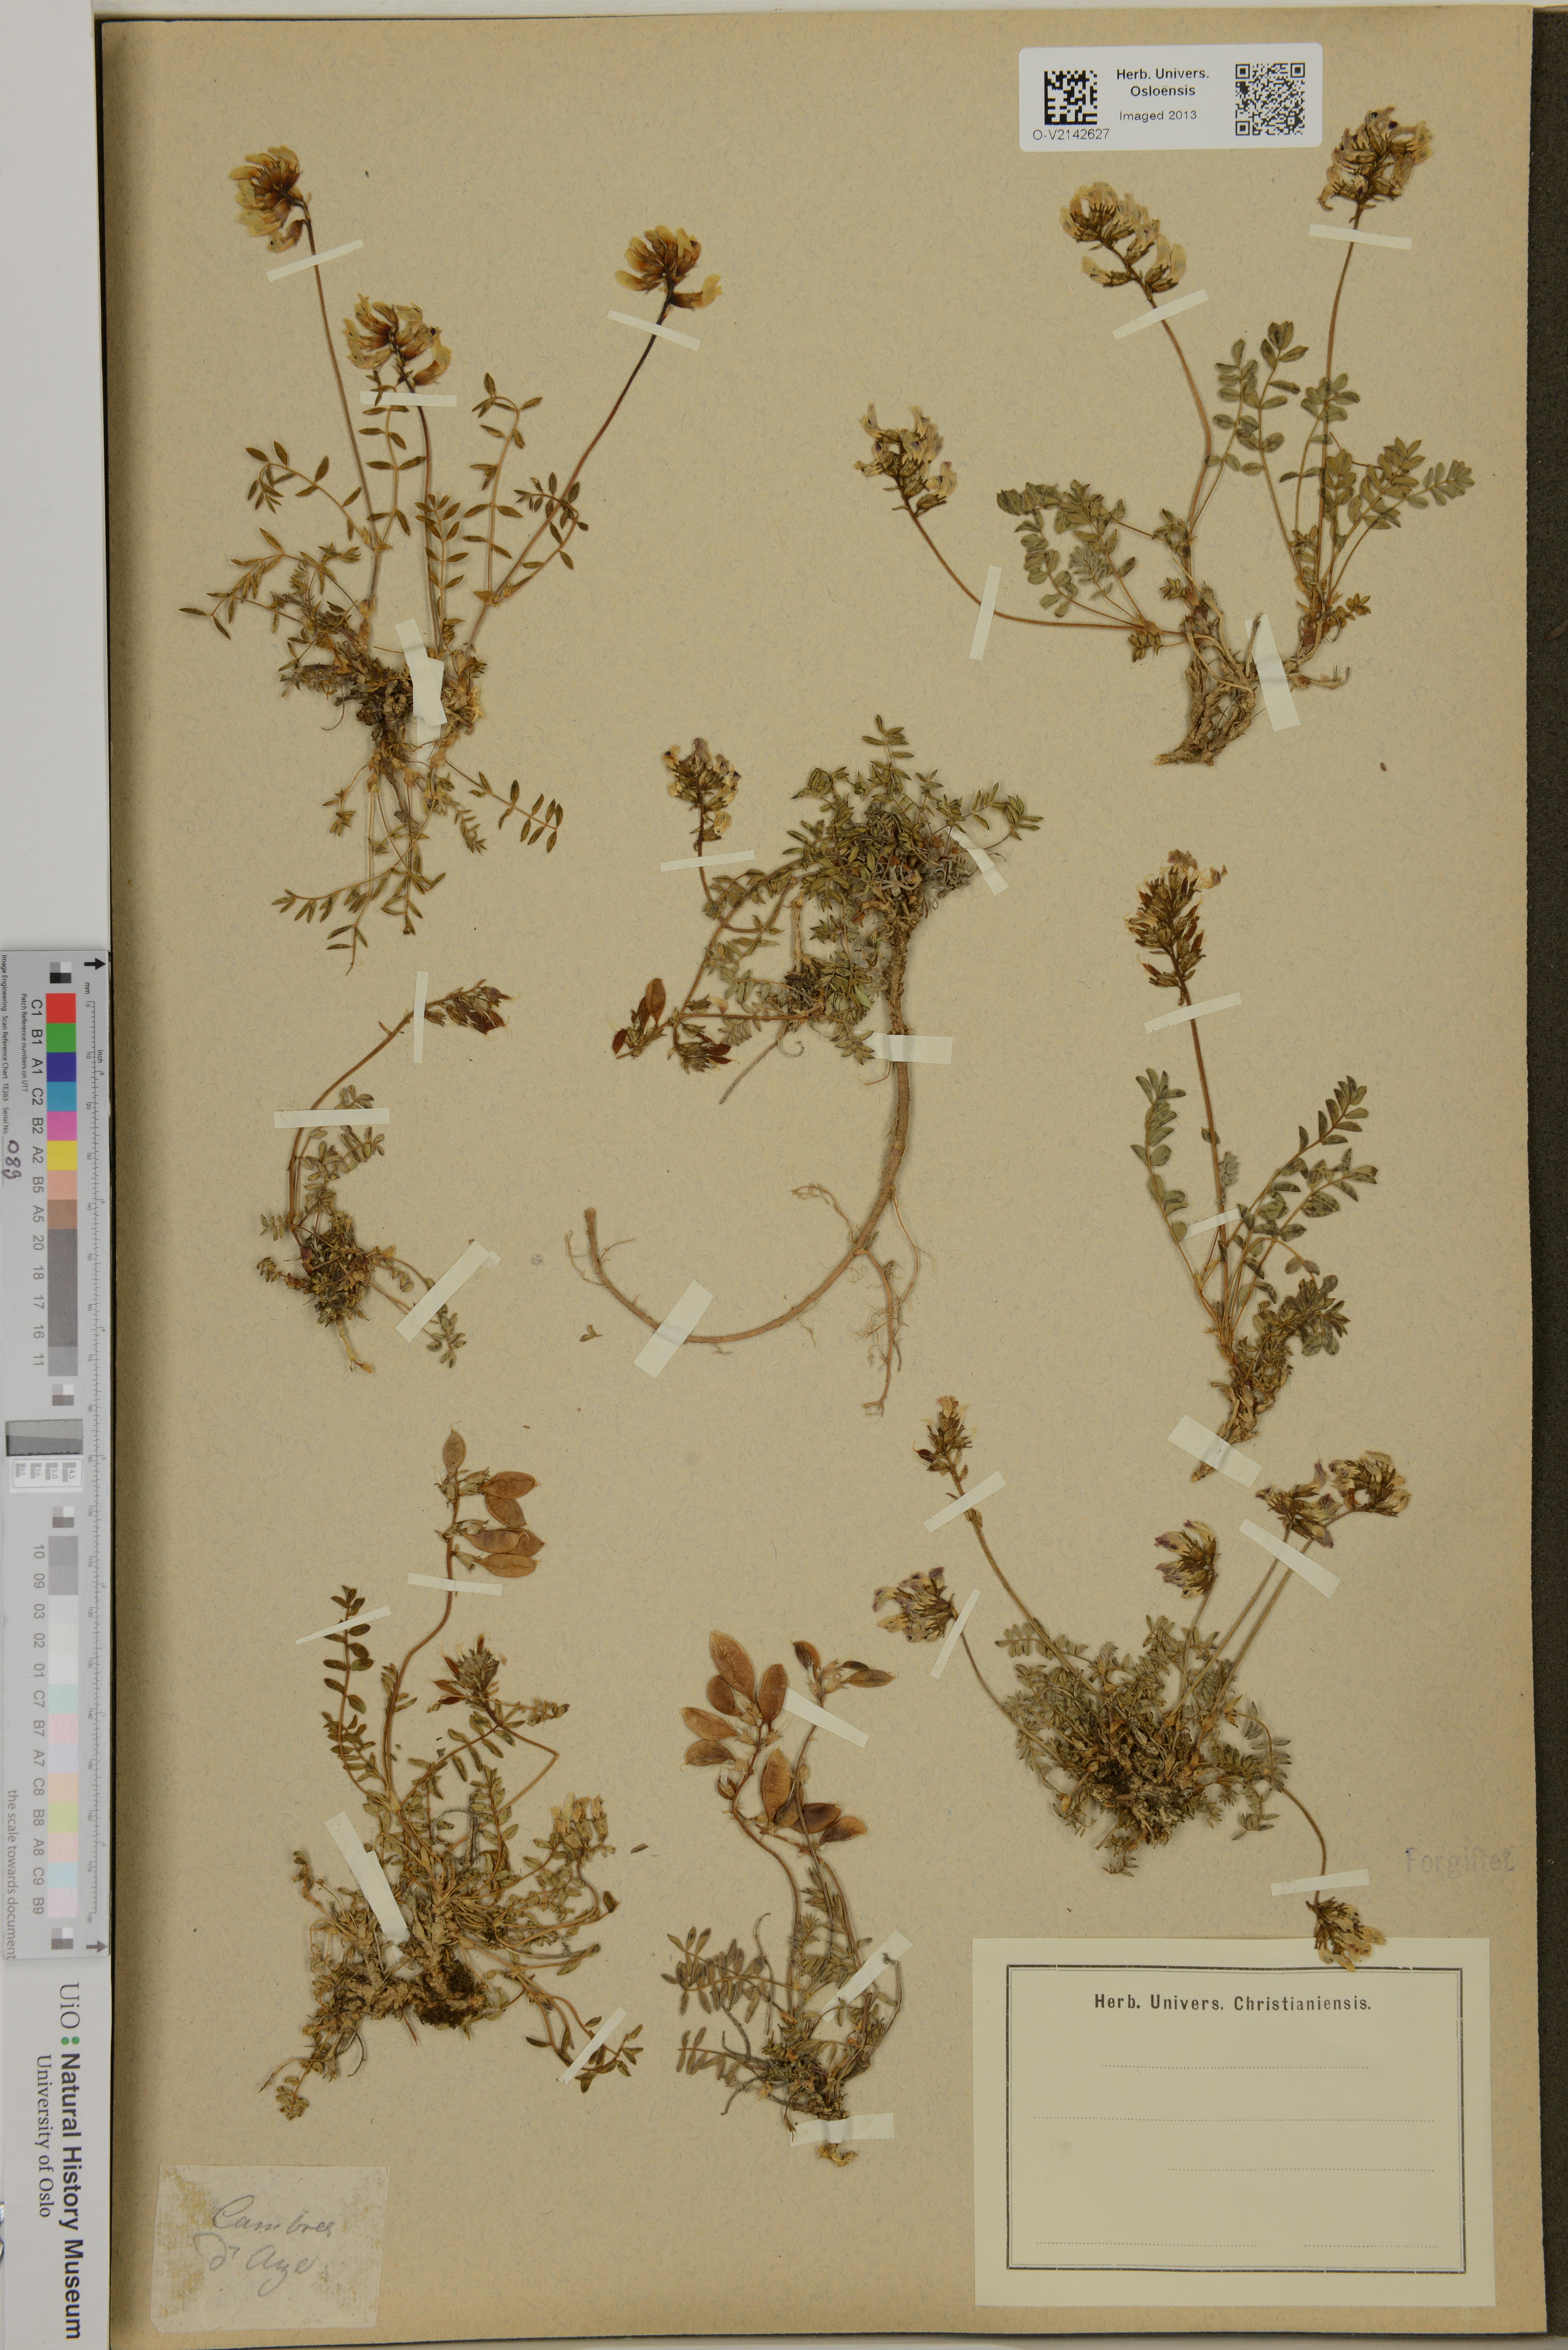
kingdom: Plantae
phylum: Tracheophyta
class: Magnoliopsida
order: Fabales
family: Fabaceae
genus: Astragalus
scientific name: Astragalus
